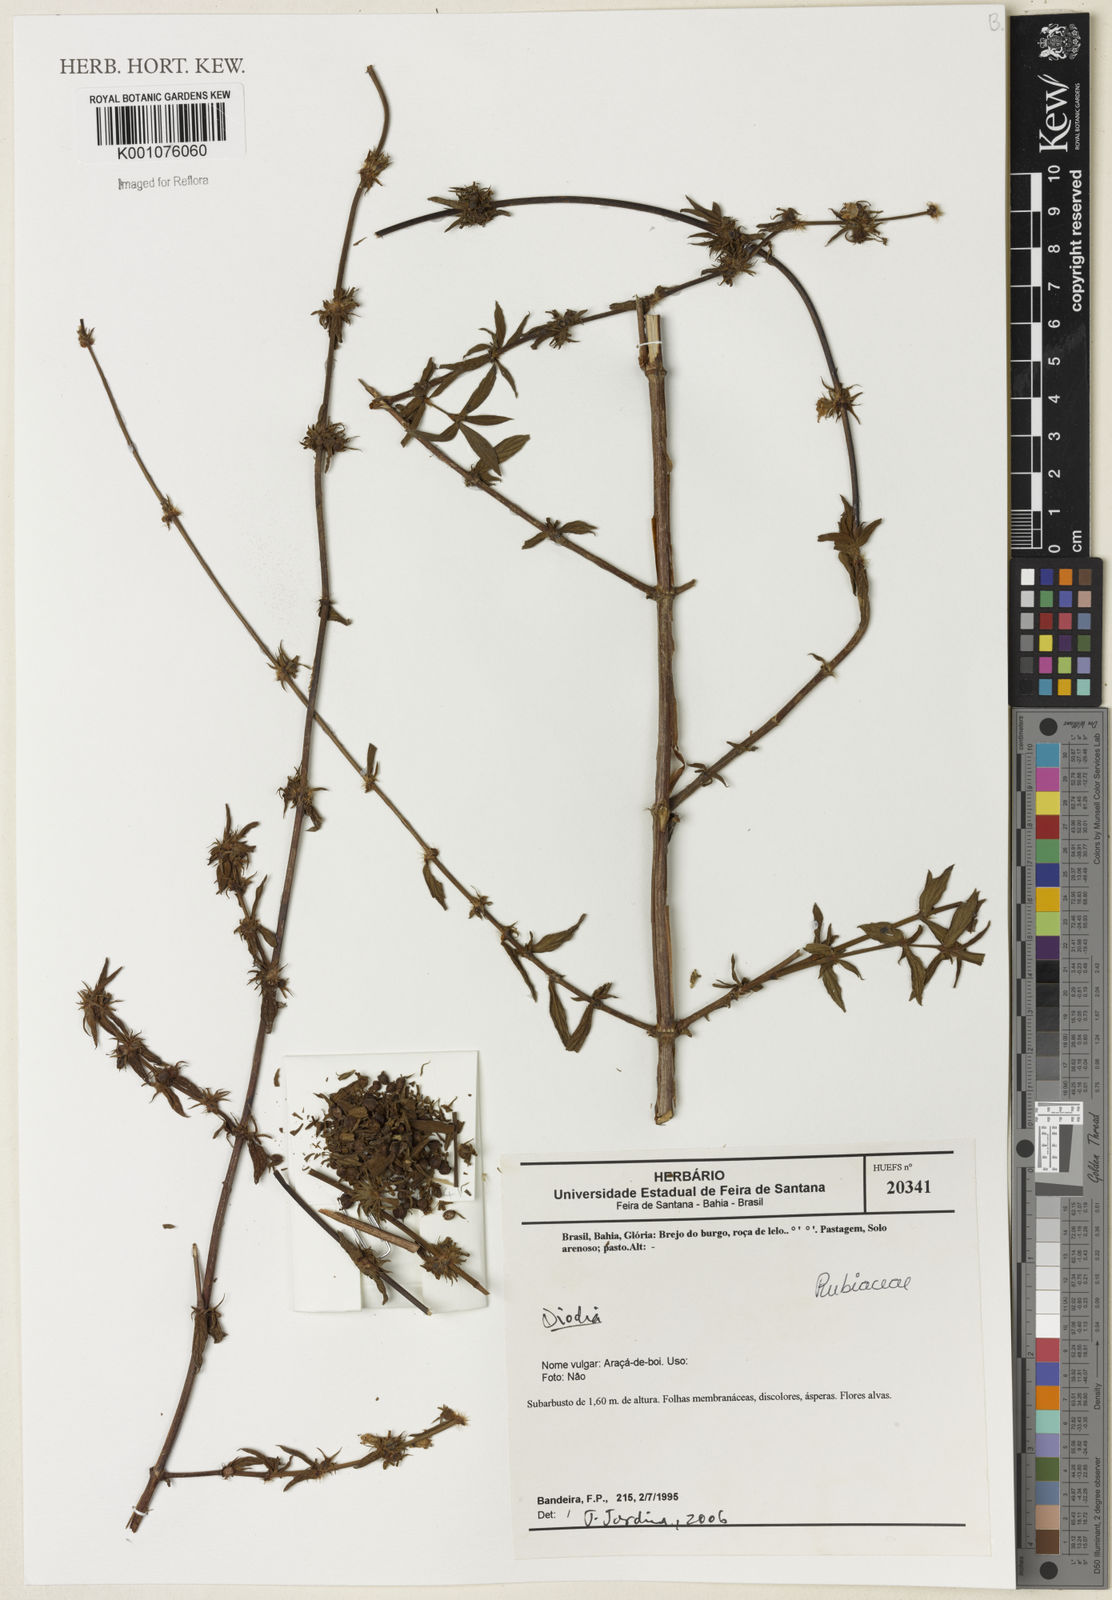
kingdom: Plantae
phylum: Tracheophyta
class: Magnoliopsida
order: Gentianales
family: Rubiaceae
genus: Diodia
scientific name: Diodia
